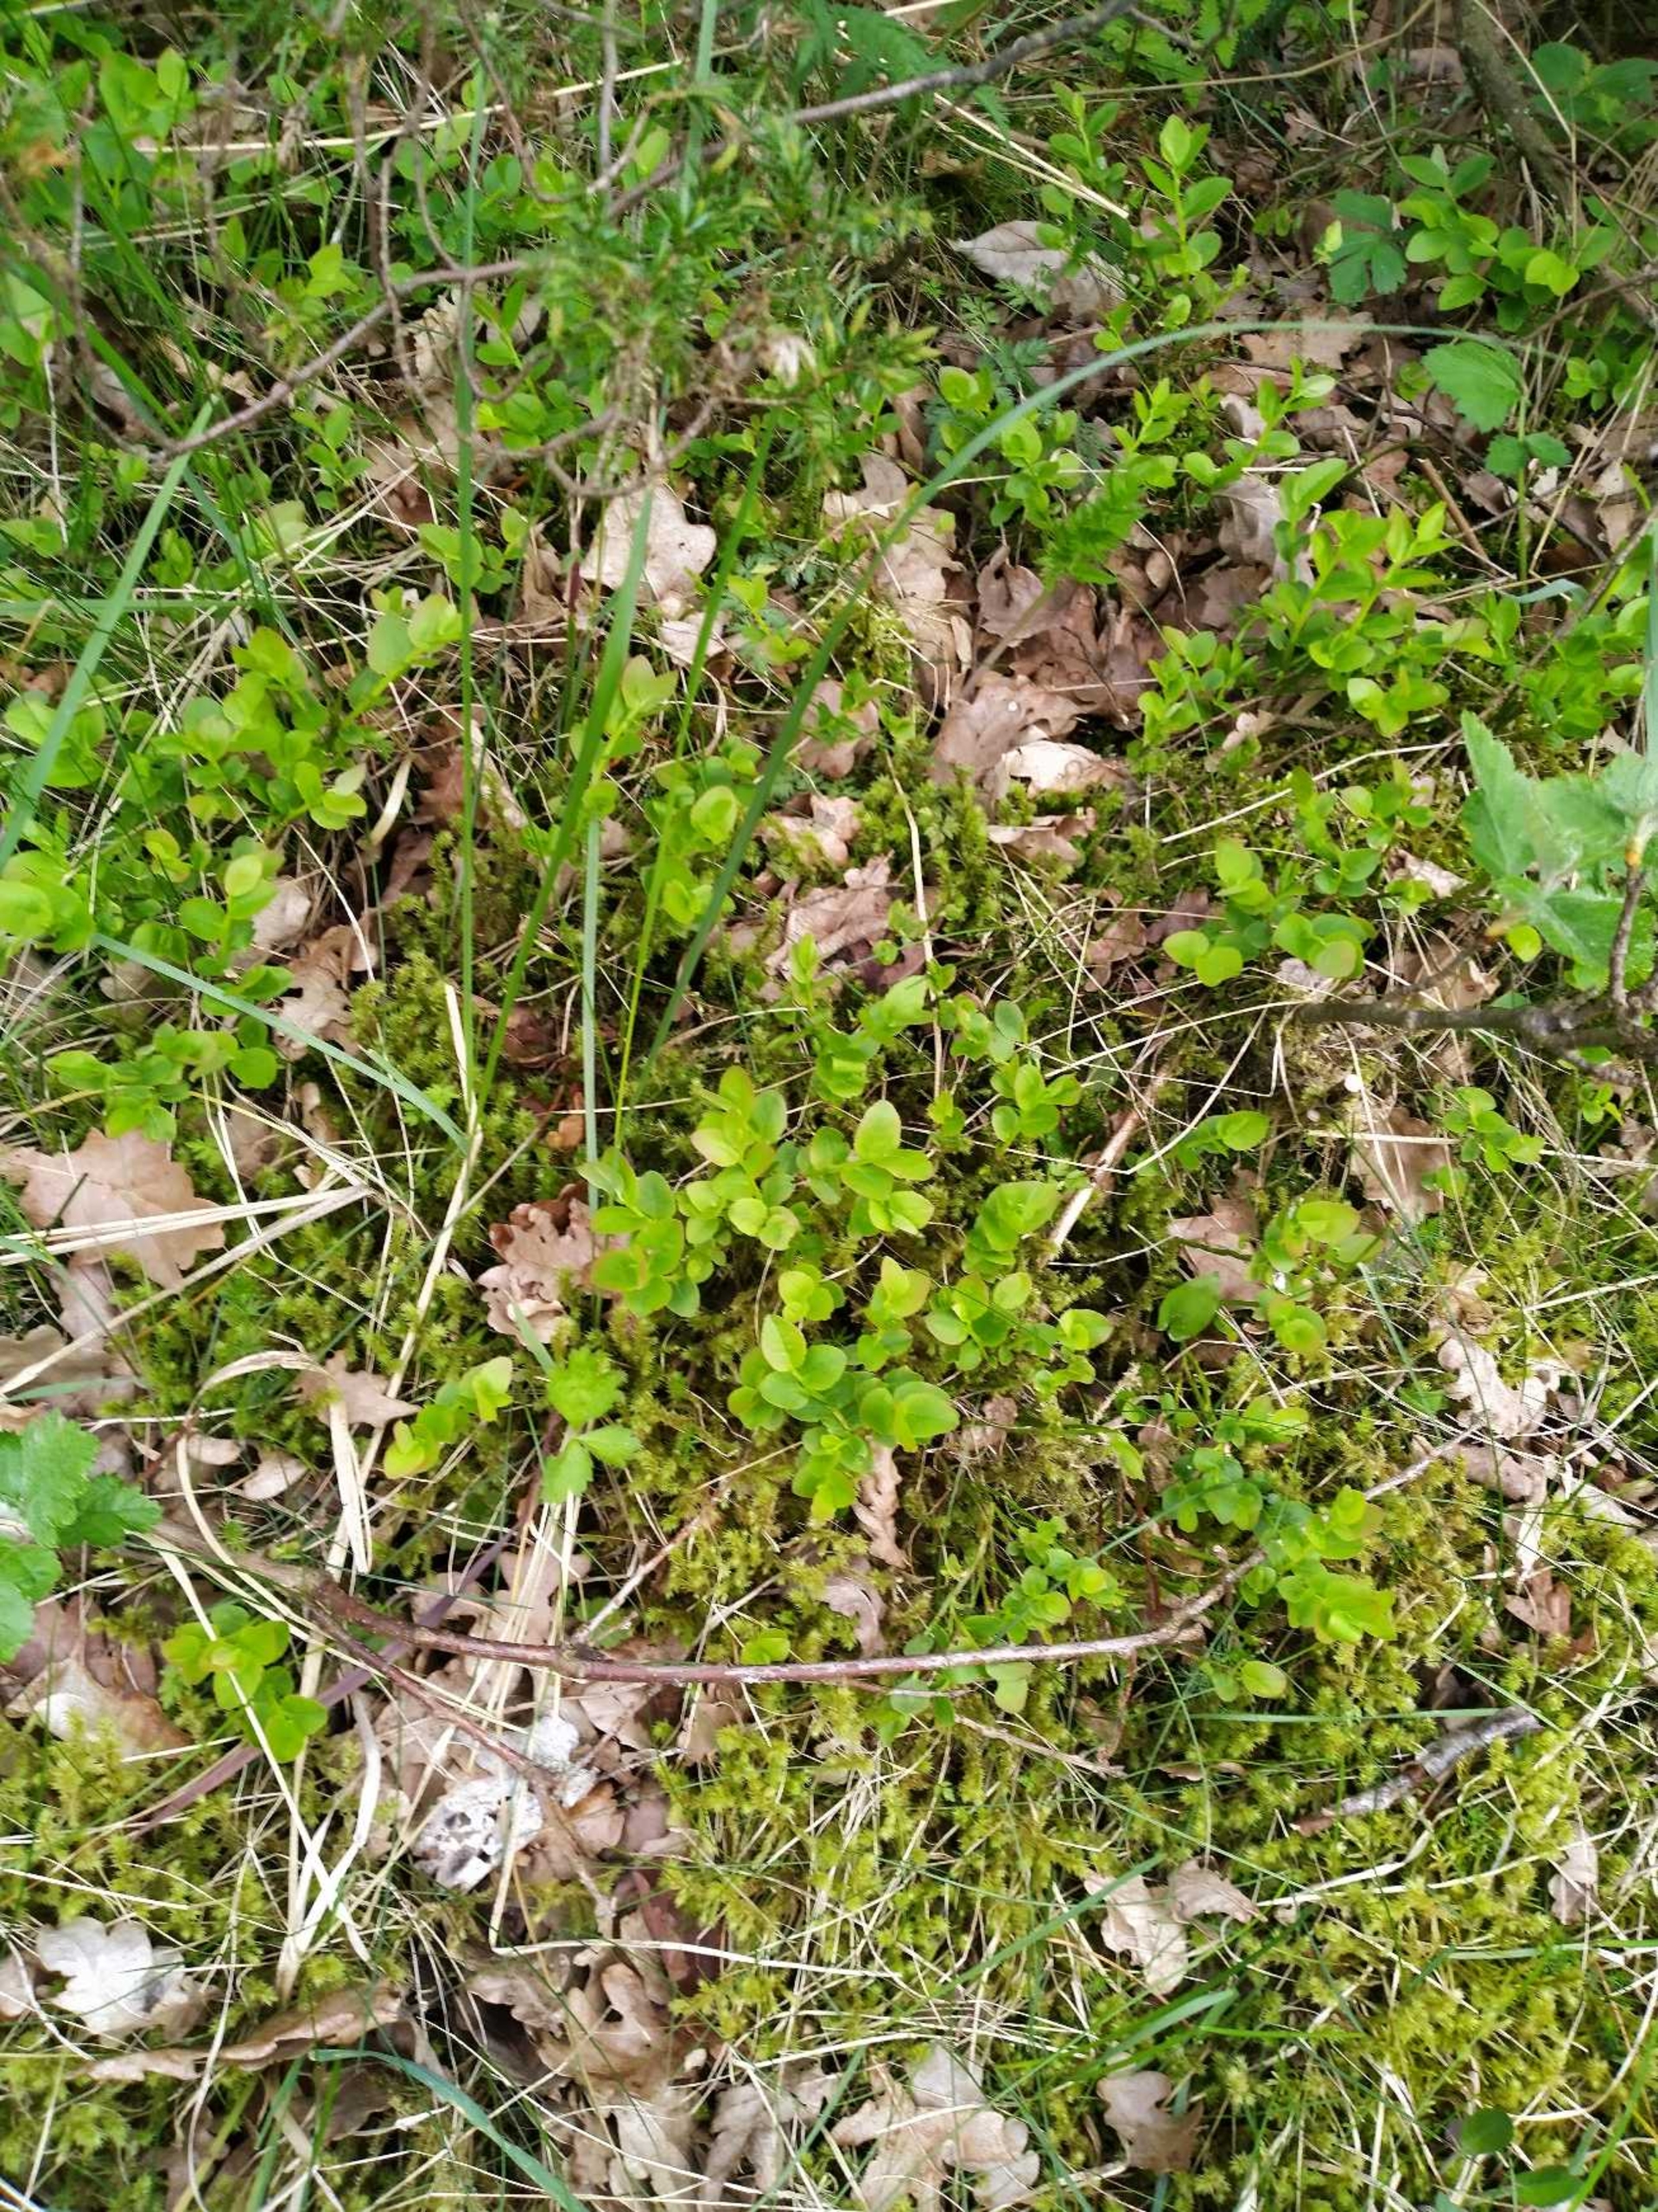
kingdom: Plantae
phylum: Tracheophyta
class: Magnoliopsida
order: Ericales
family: Ericaceae
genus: Vaccinium
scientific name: Vaccinium myrtillus
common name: Blåbær
